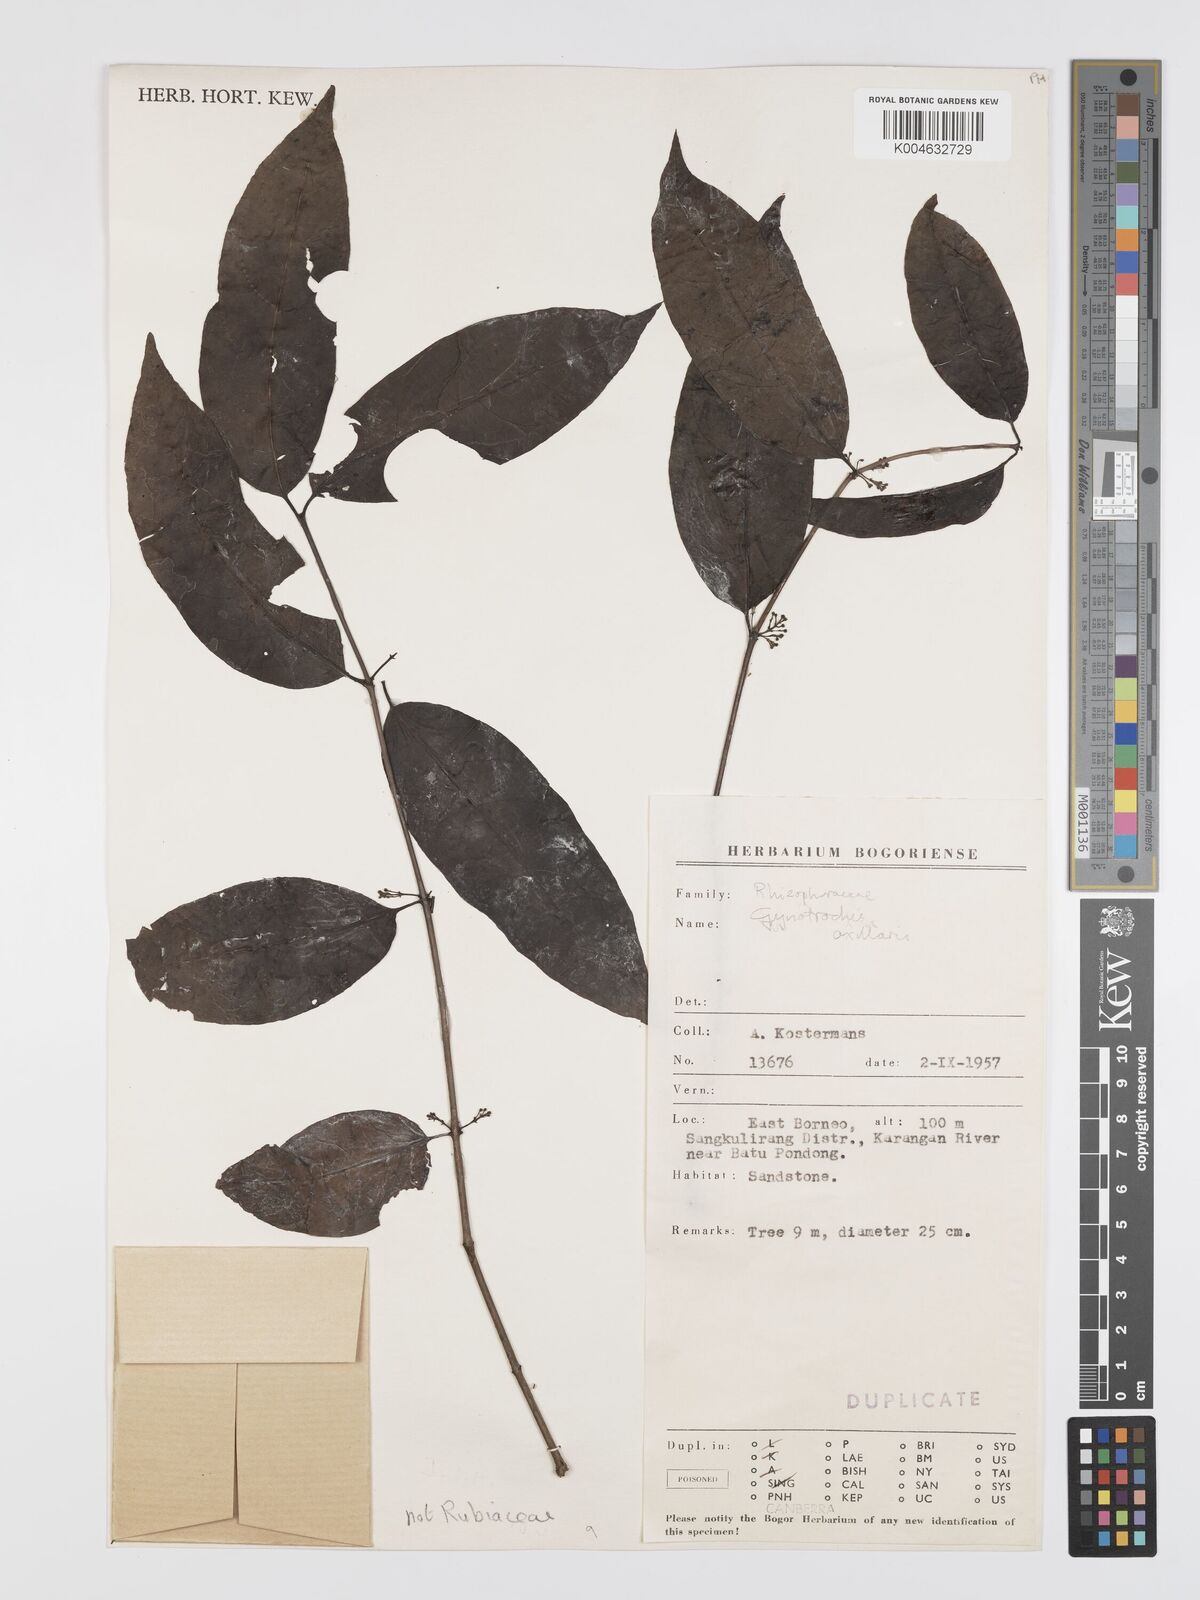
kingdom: Plantae
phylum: Tracheophyta
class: Magnoliopsida
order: Malpighiales
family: Rhizophoraceae
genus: Gynotroches
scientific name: Gynotroches axillaris
